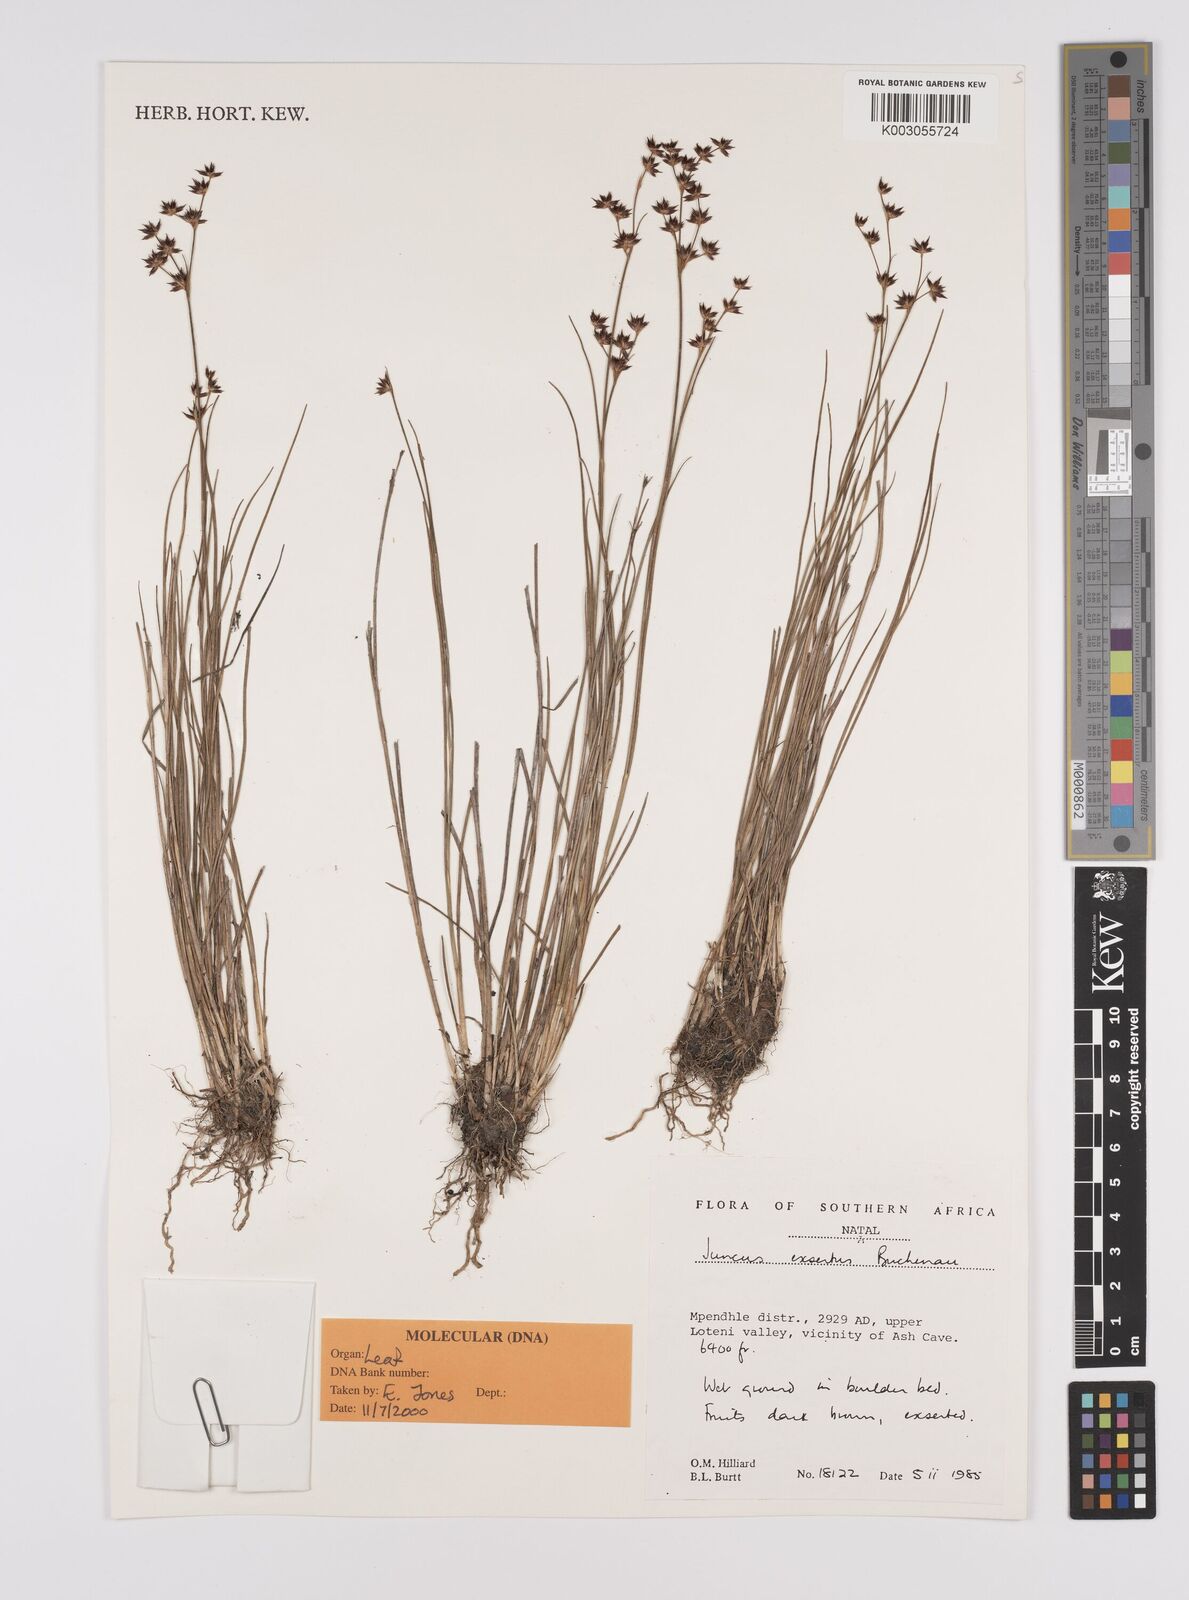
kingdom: Plantae
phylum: Tracheophyta
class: Liliopsida
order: Poales
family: Juncaceae
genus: Juncus
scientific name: Juncus exsertus
